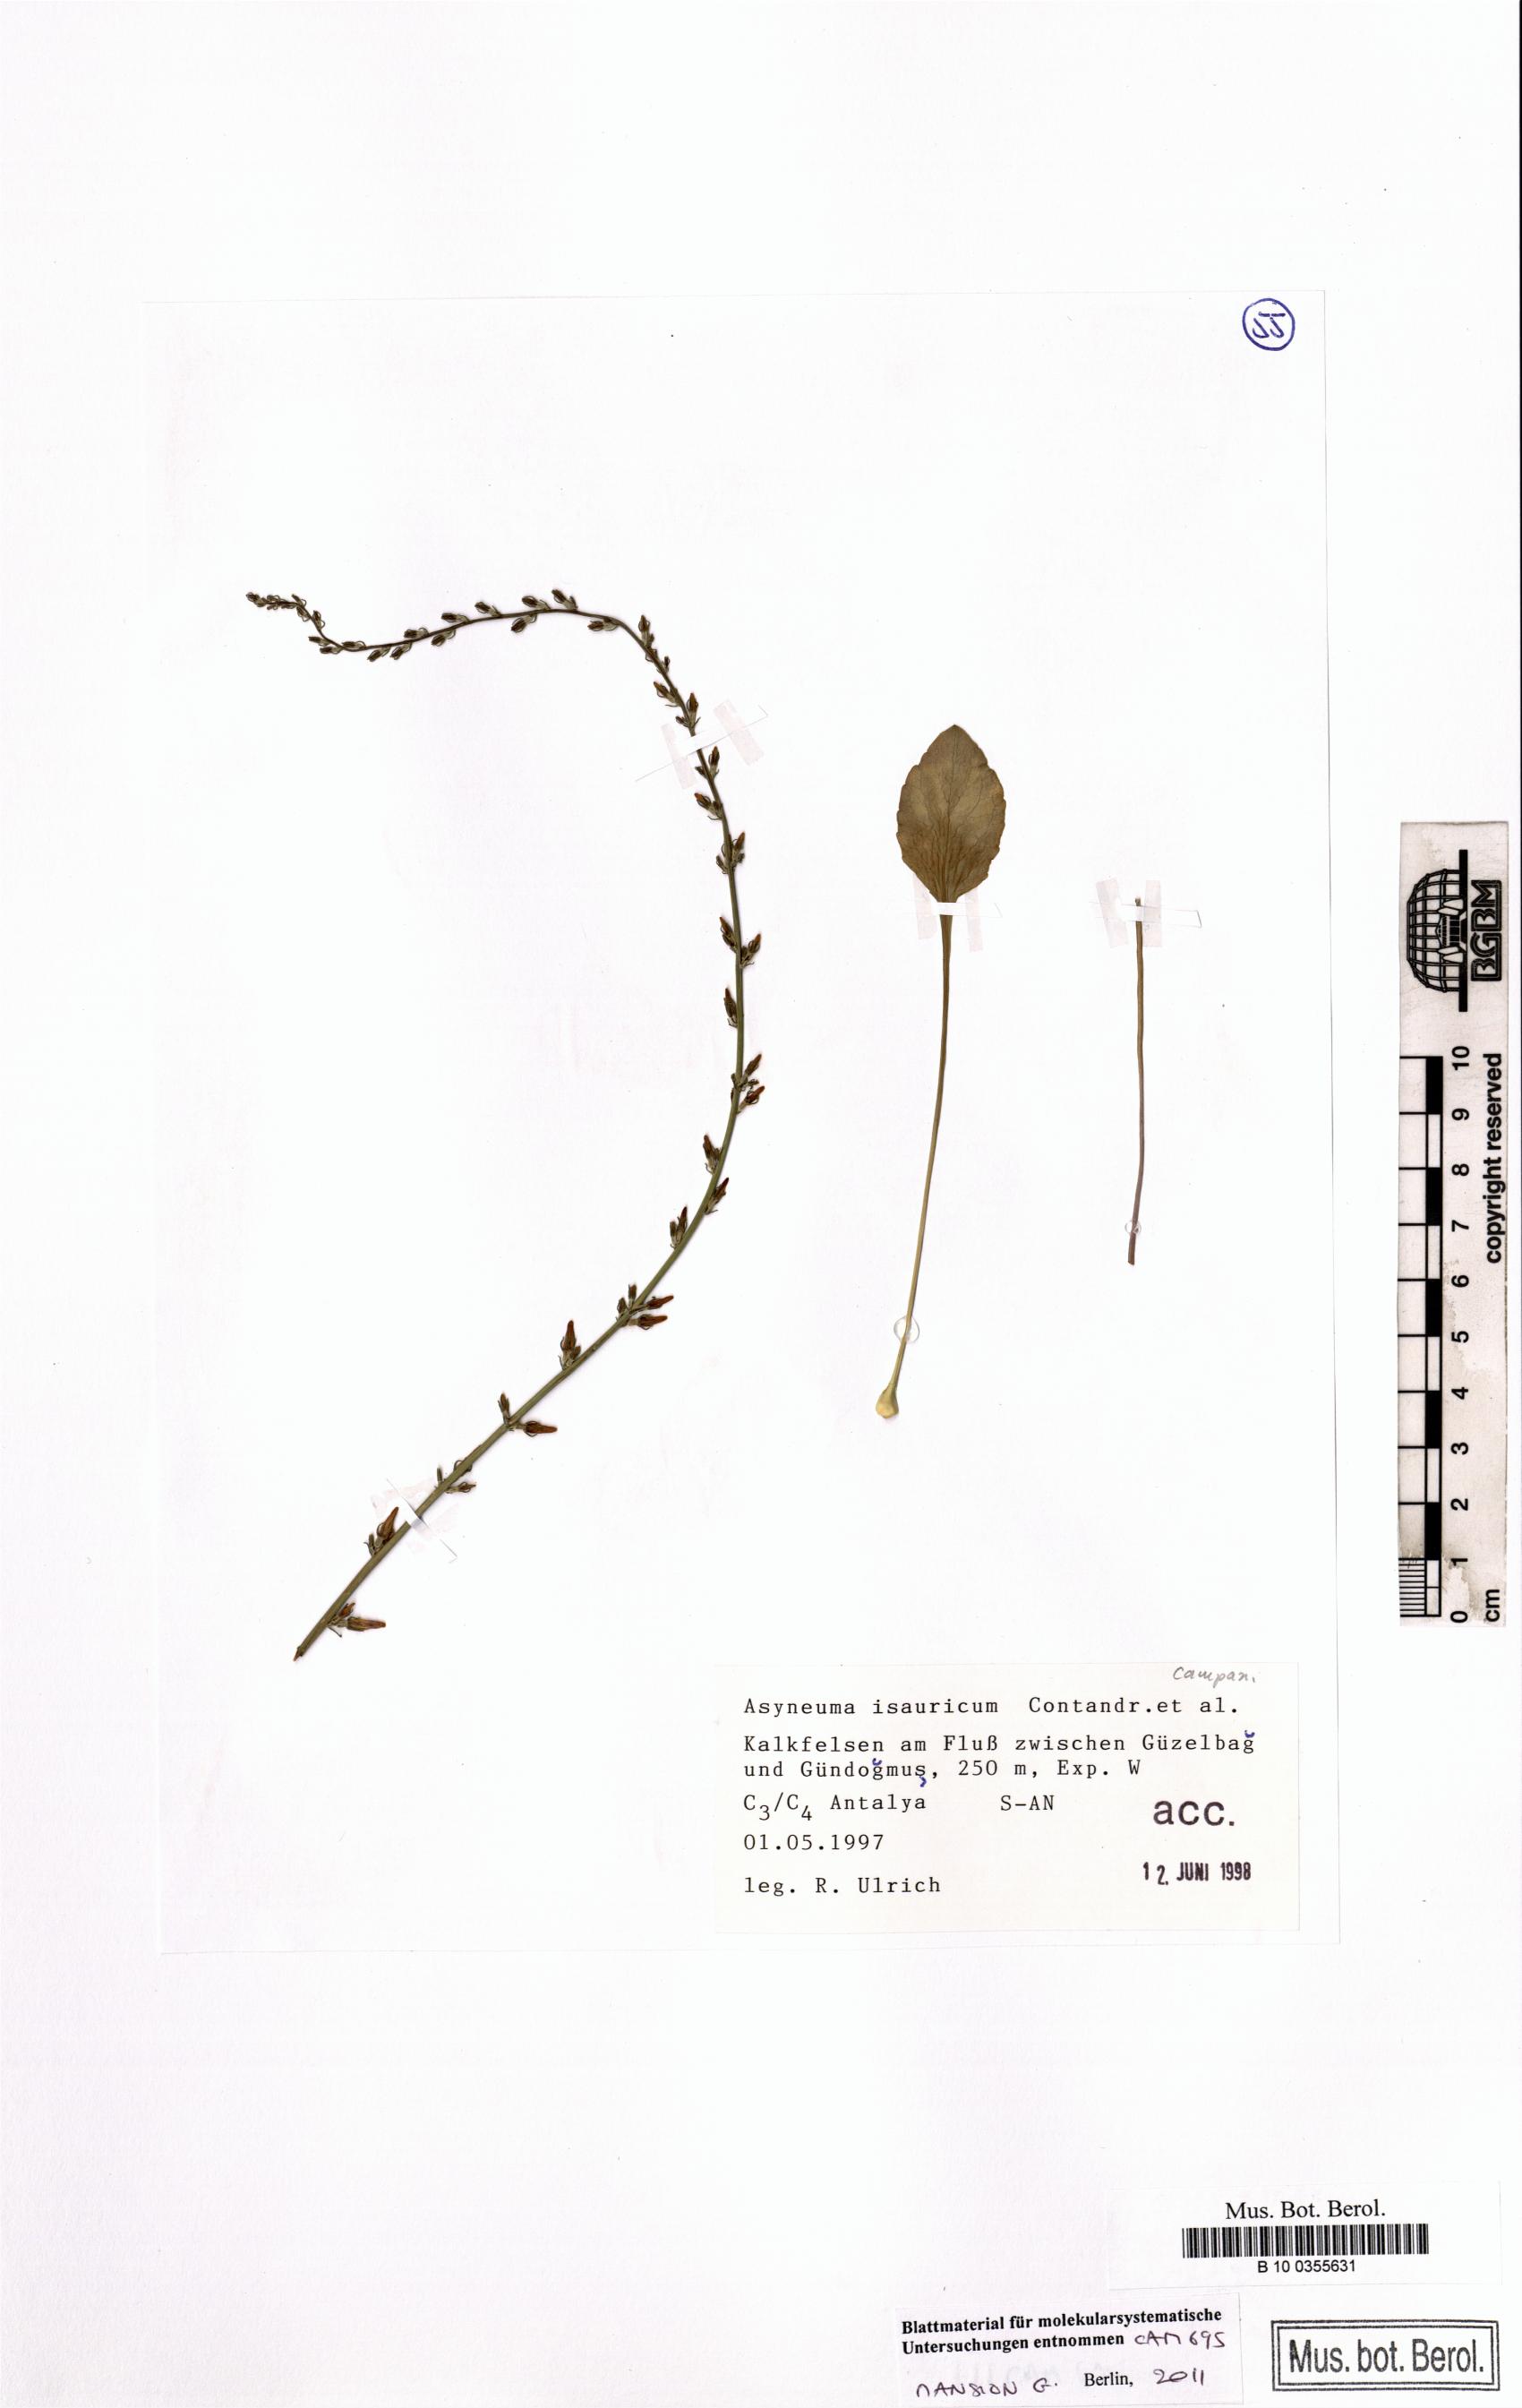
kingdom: Plantae
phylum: Tracheophyta
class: Magnoliopsida
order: Asterales
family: Campanulaceae
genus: Asyneuma
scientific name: Asyneuma isauricum
